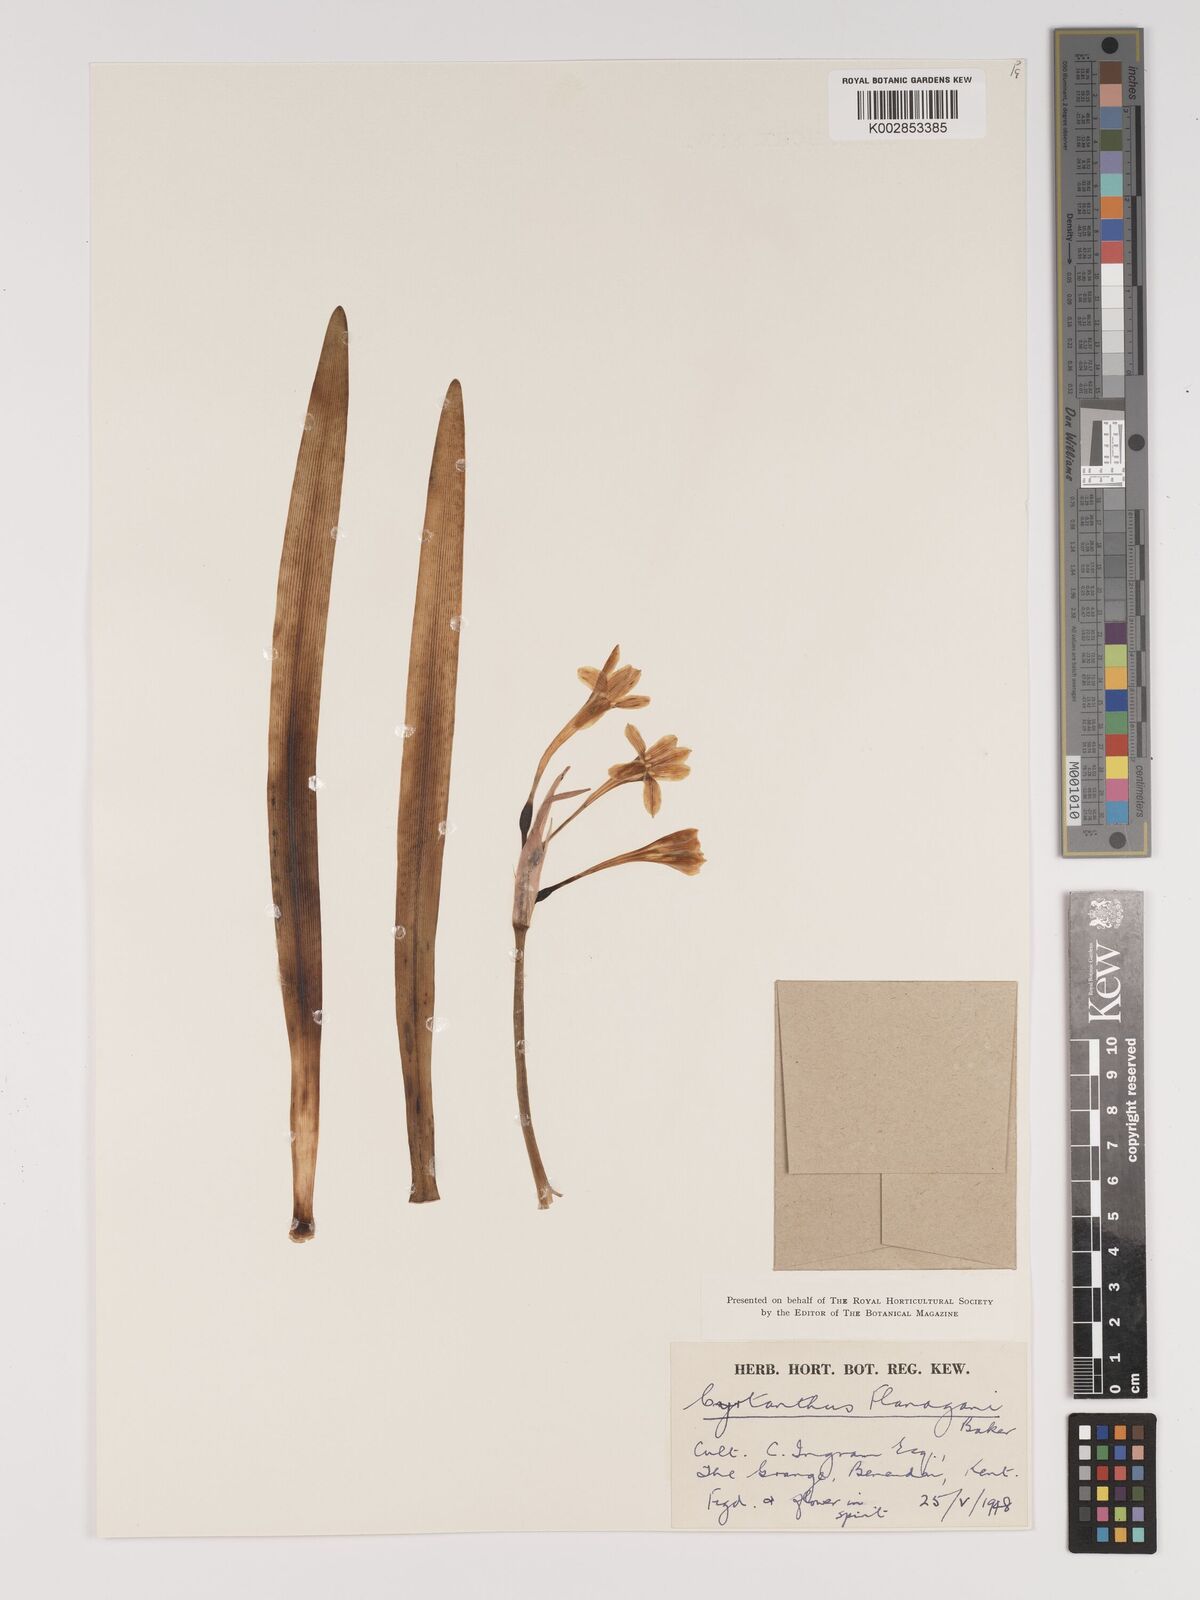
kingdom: Plantae
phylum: Tracheophyta
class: Liliopsida
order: Asparagales
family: Amaryllidaceae
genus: Cyrtanthus
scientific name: Cyrtanthus flanaganii
